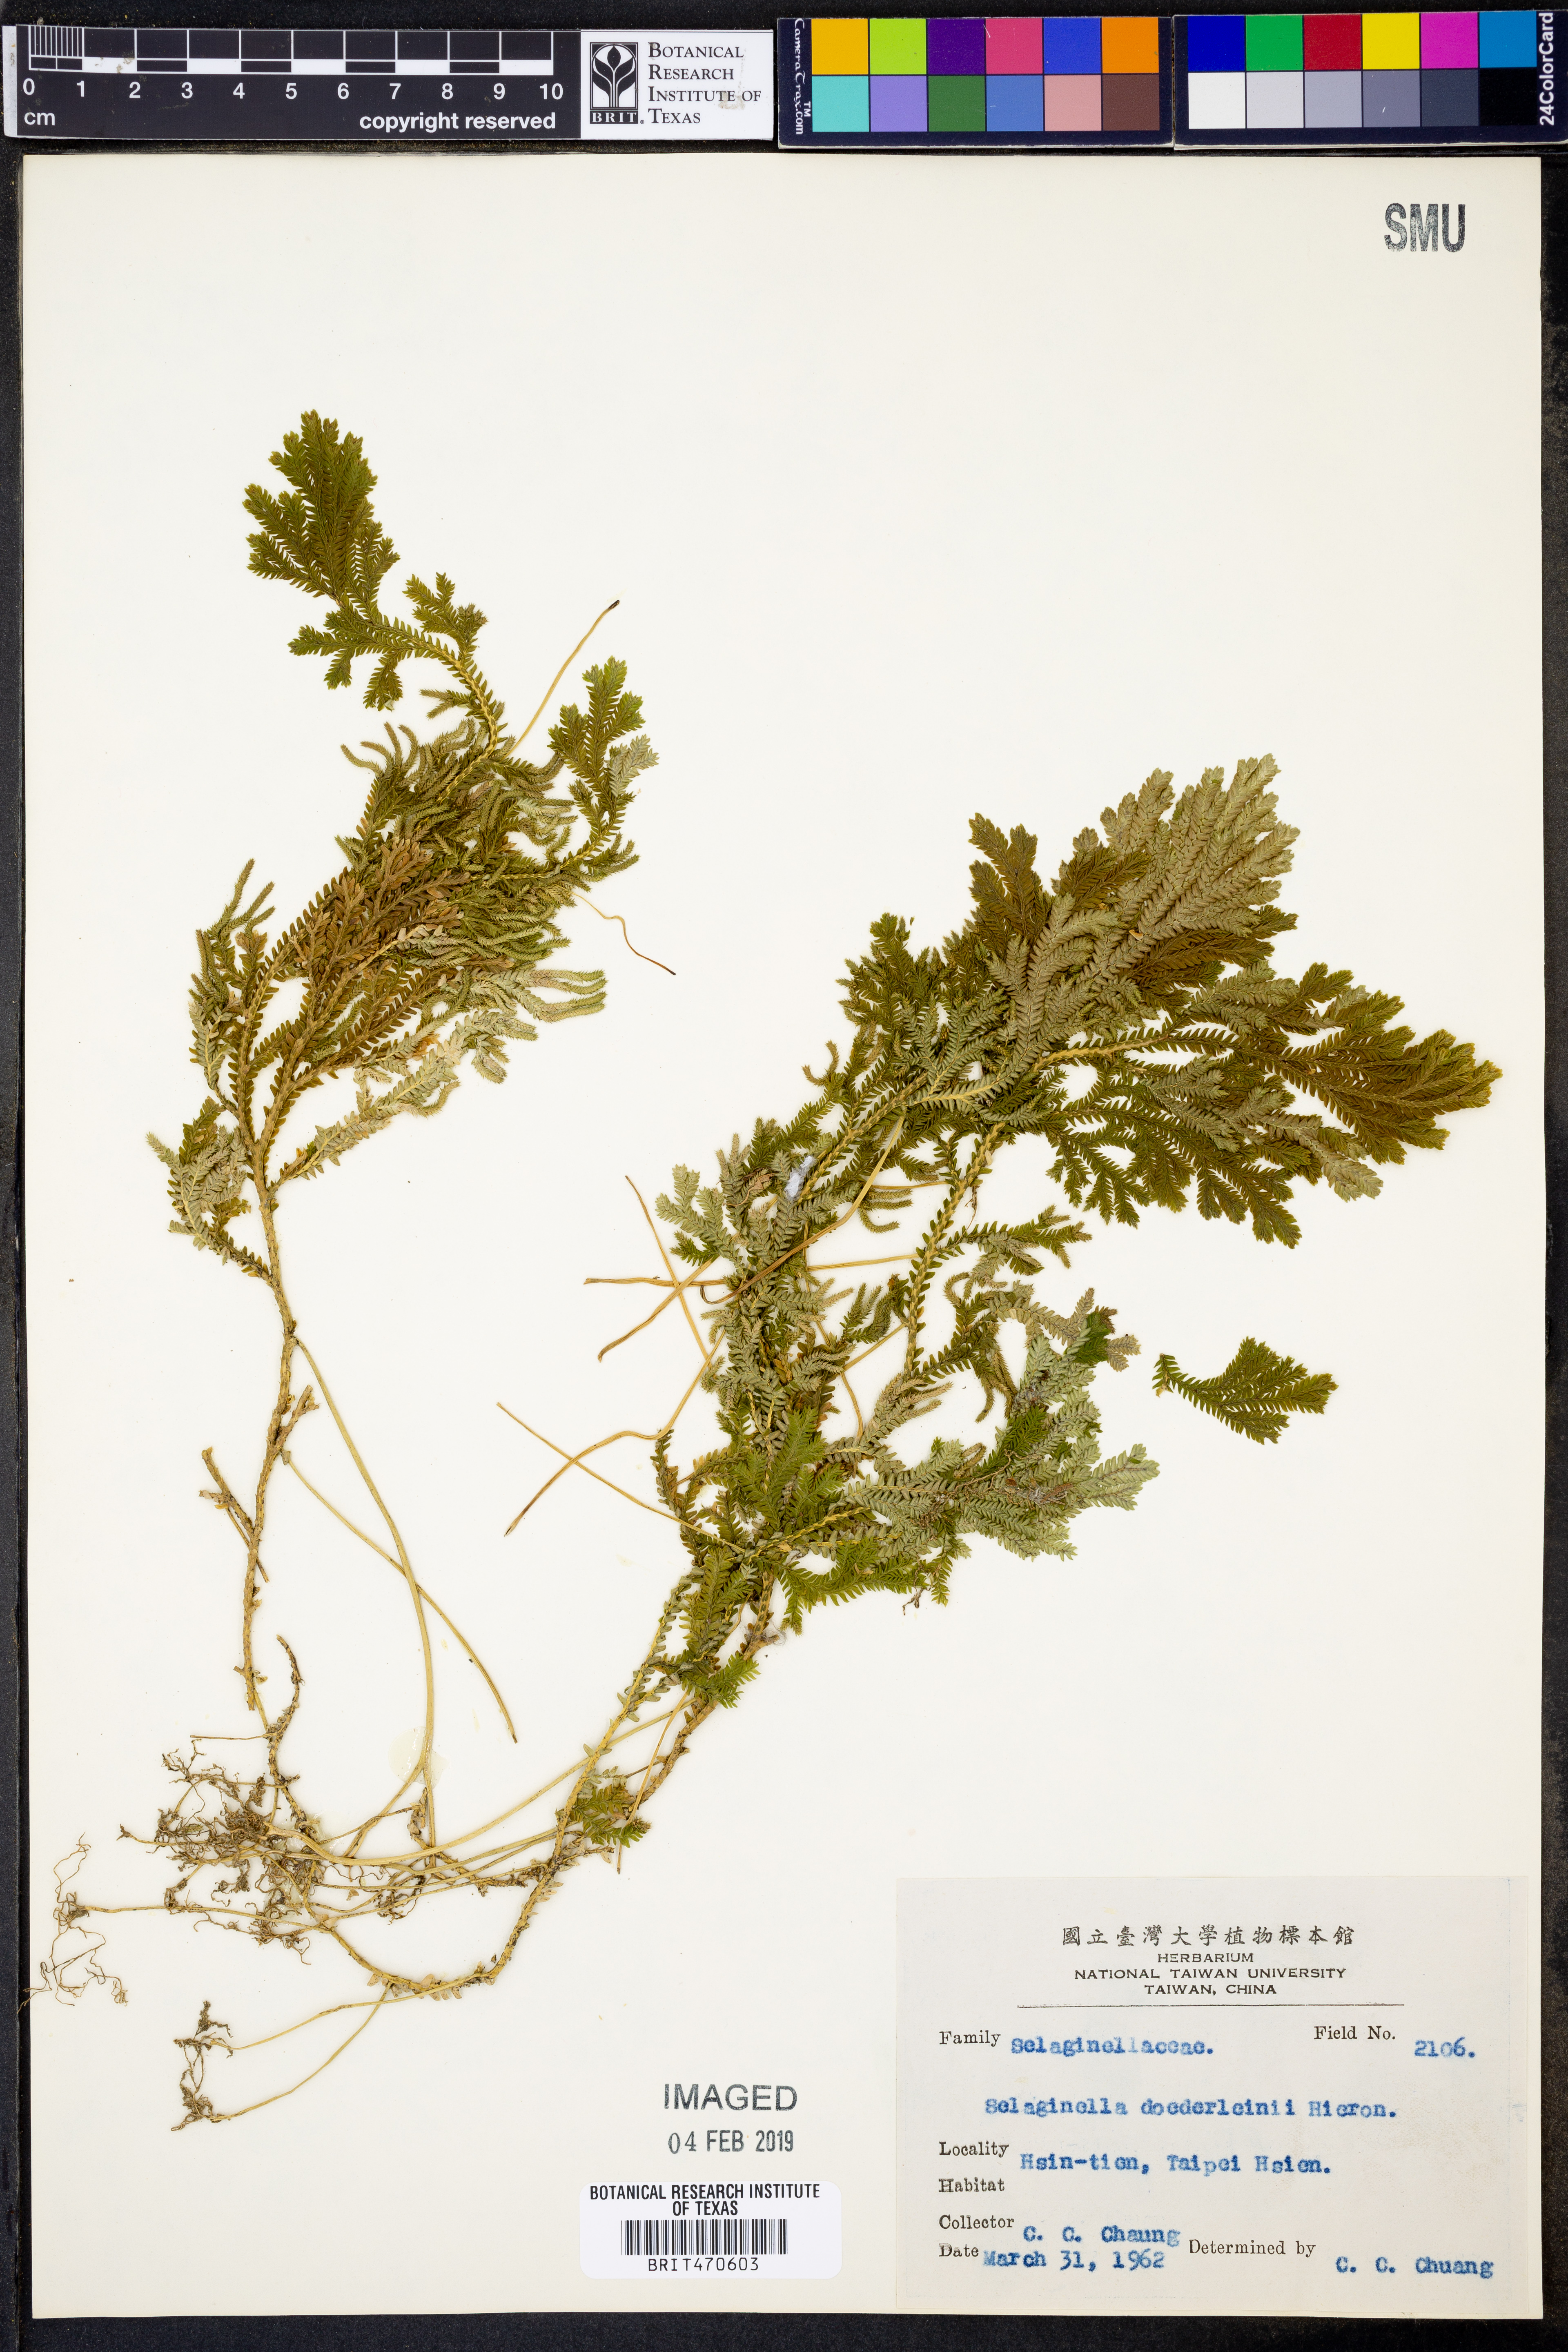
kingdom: Plantae
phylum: Tracheophyta
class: Lycopodiopsida
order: Selaginellales
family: Selaginellaceae
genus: Selaginella
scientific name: Selaginella doederleinii
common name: Greater selaginella
